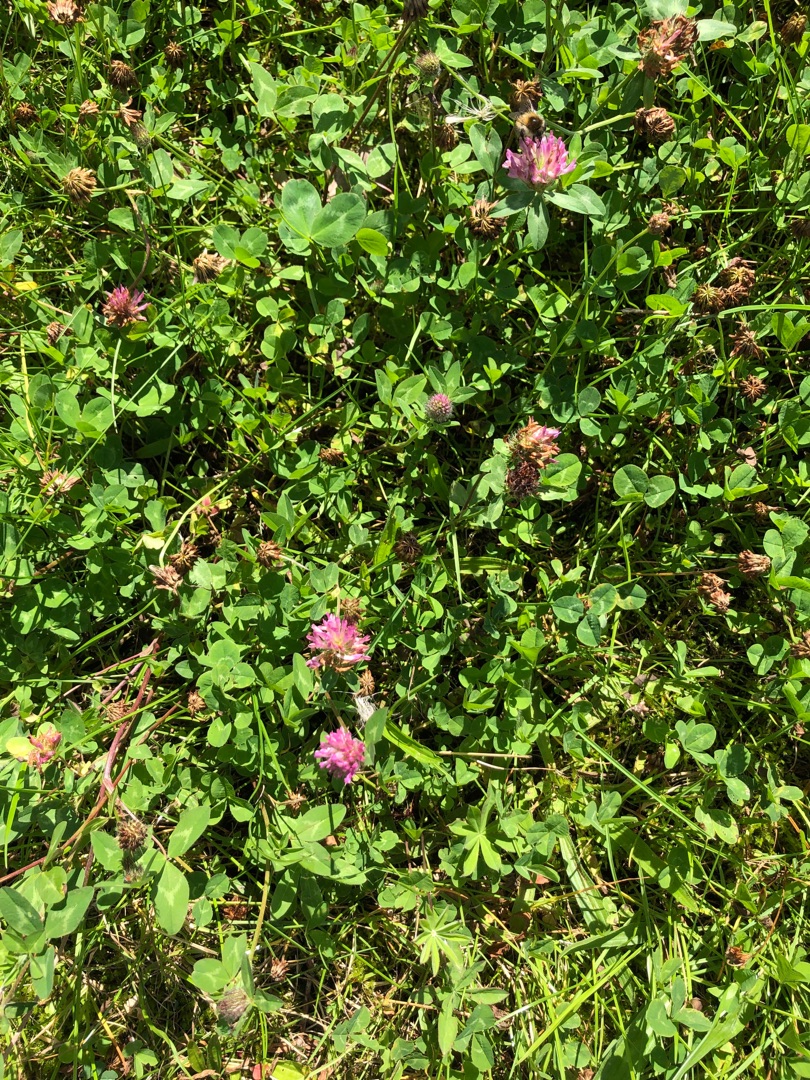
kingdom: Plantae
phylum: Tracheophyta
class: Magnoliopsida
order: Fabales
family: Fabaceae
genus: Trifolium
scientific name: Trifolium pratense
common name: Rød-kløver
